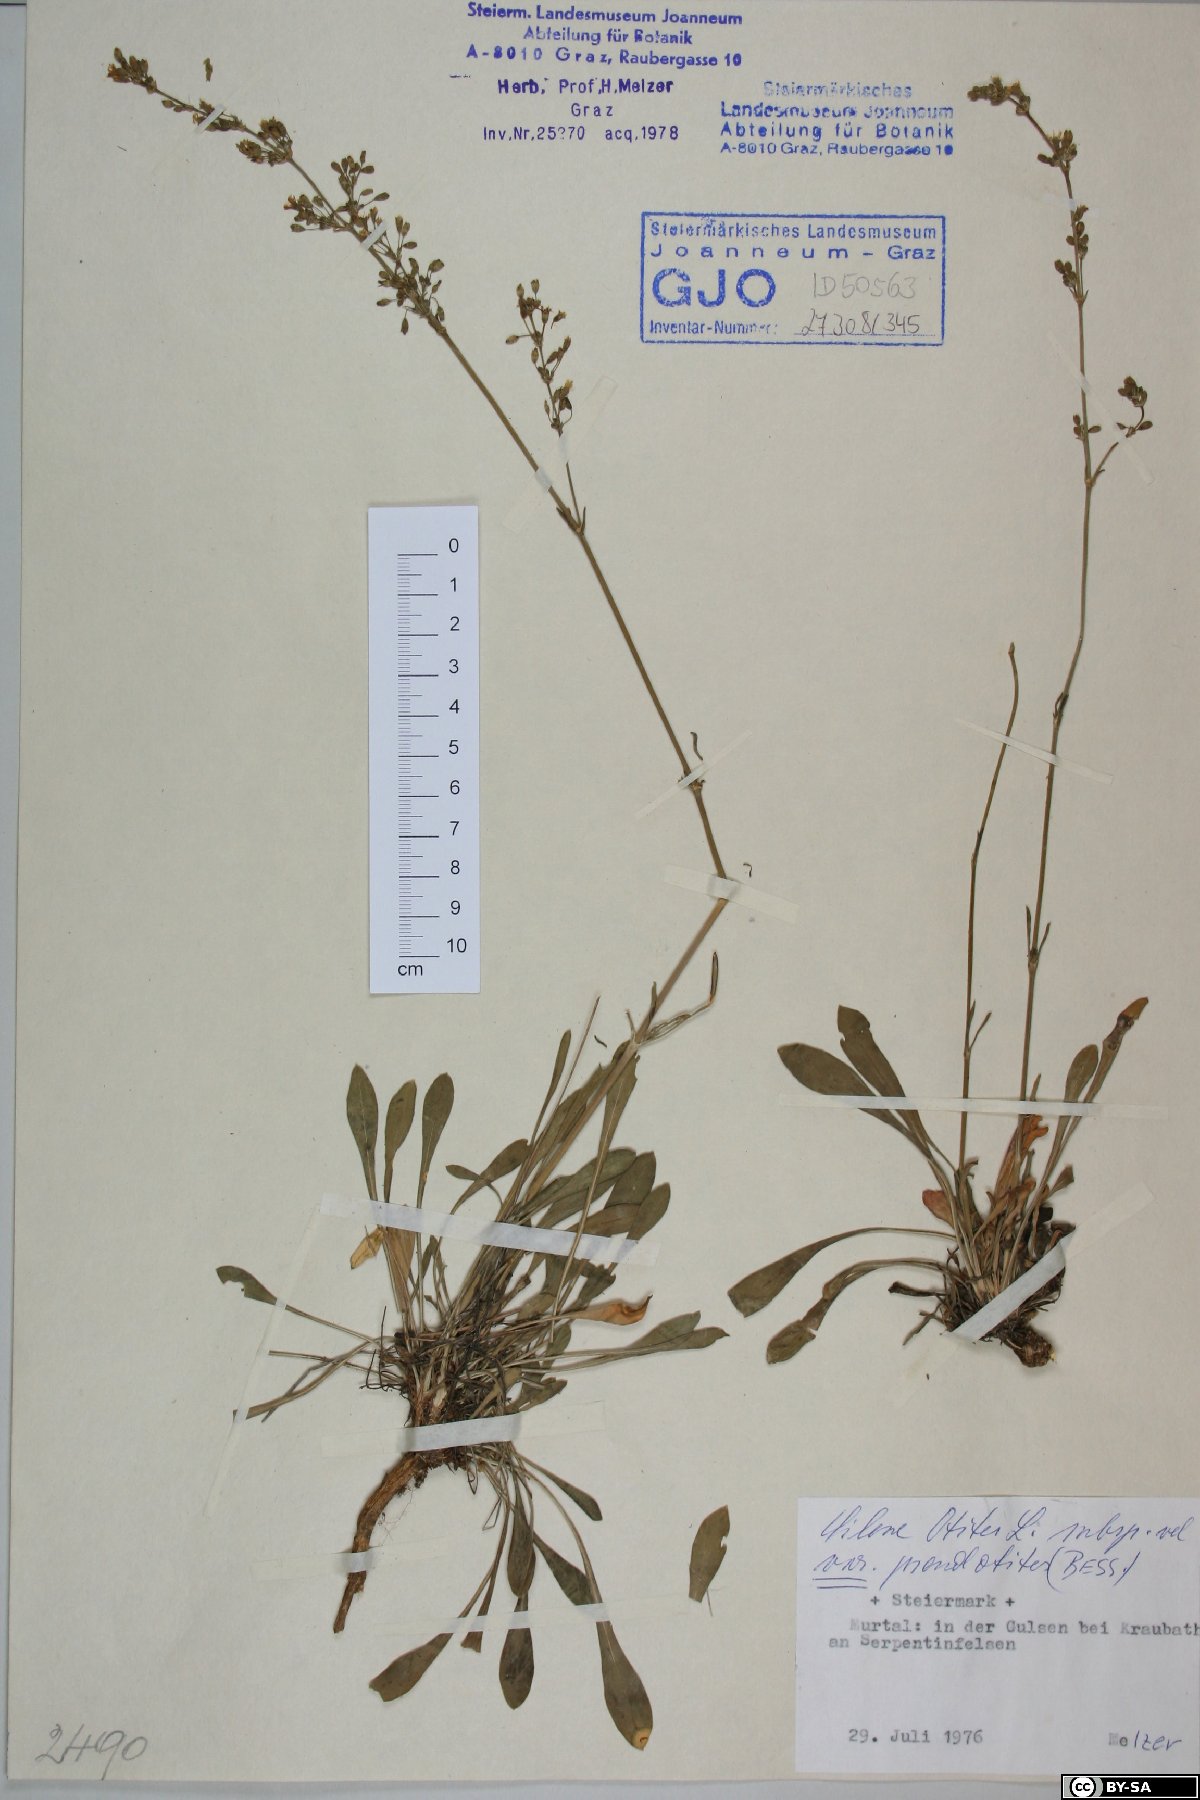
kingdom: Plantae
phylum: Tracheophyta
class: Magnoliopsida
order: Caryophyllales
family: Caryophyllaceae
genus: Silene
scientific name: Silene pseudotites
